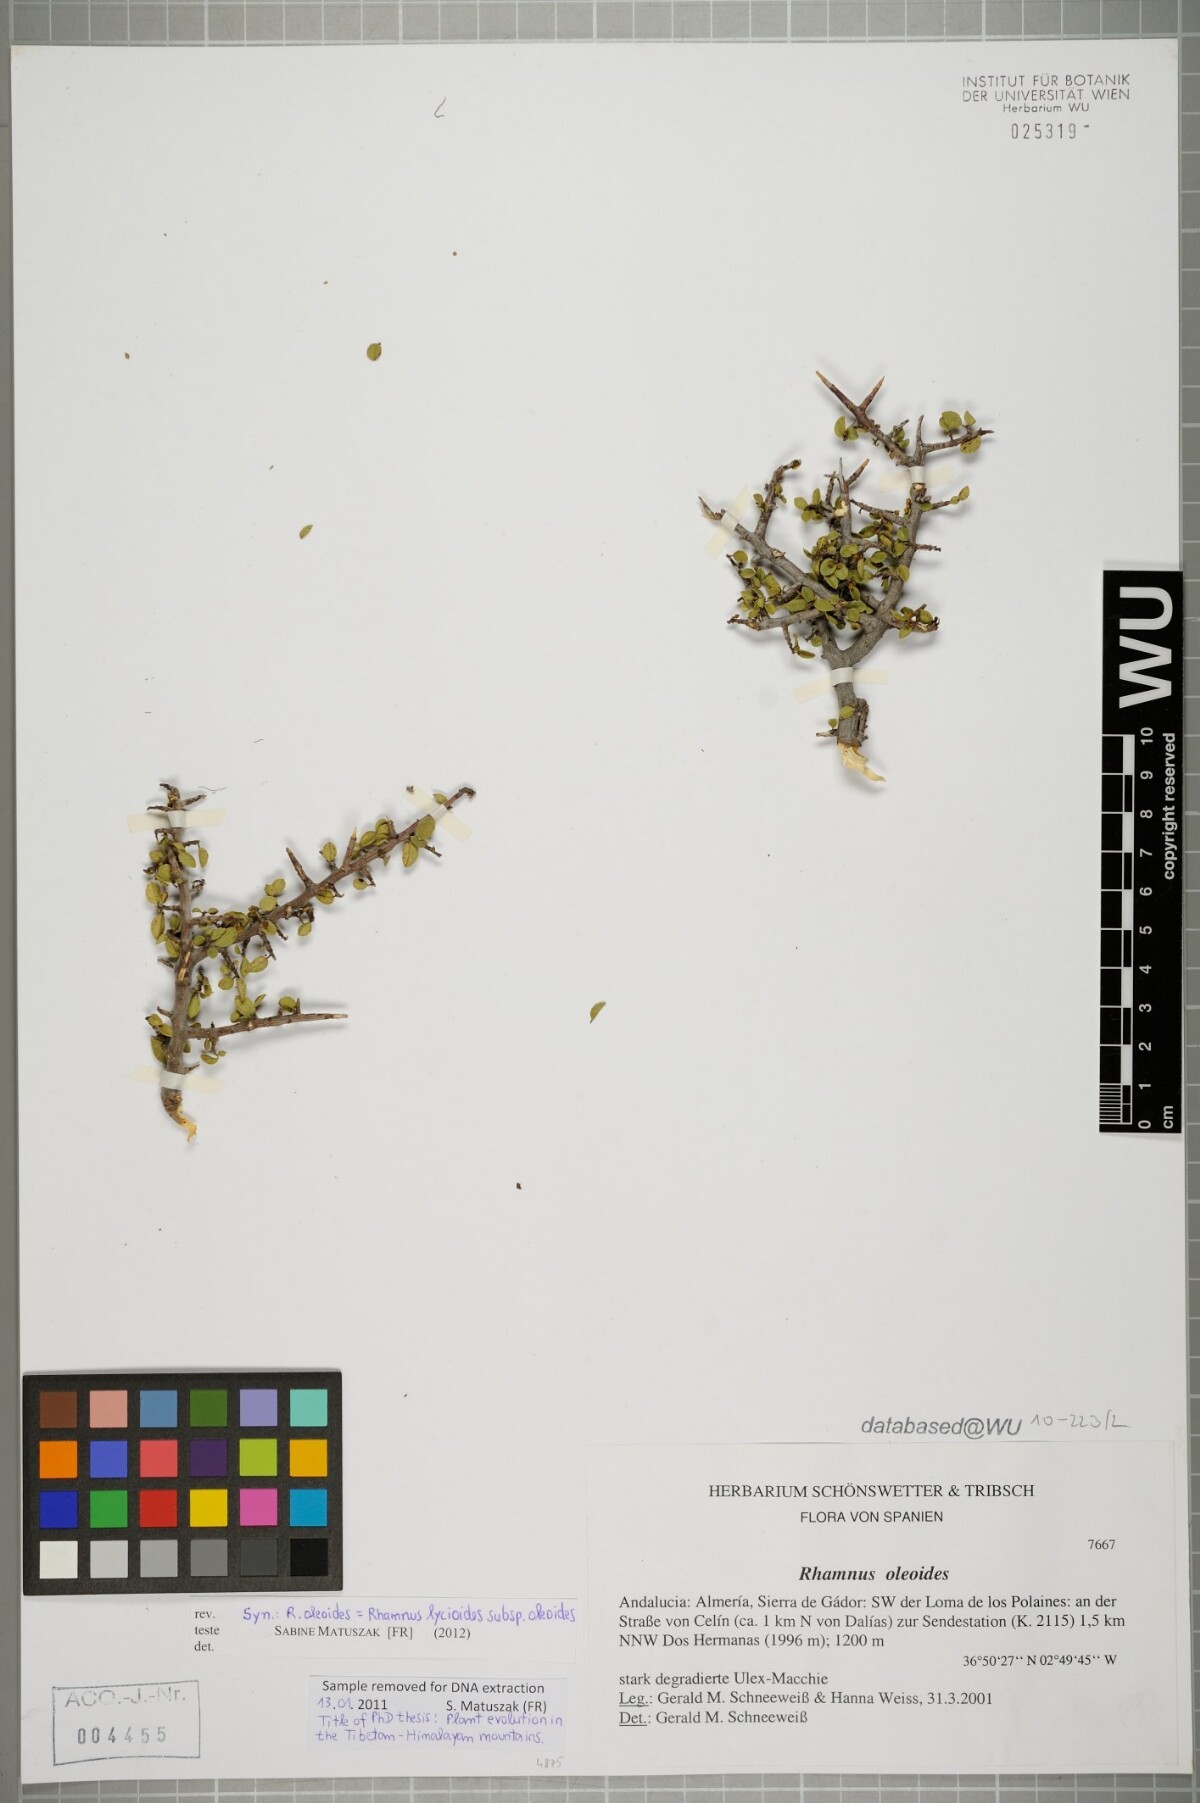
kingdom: Plantae
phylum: Tracheophyta
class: Magnoliopsida
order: Rosales
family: Rhamnaceae
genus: Rhamnus
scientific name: Rhamnus oleoides
